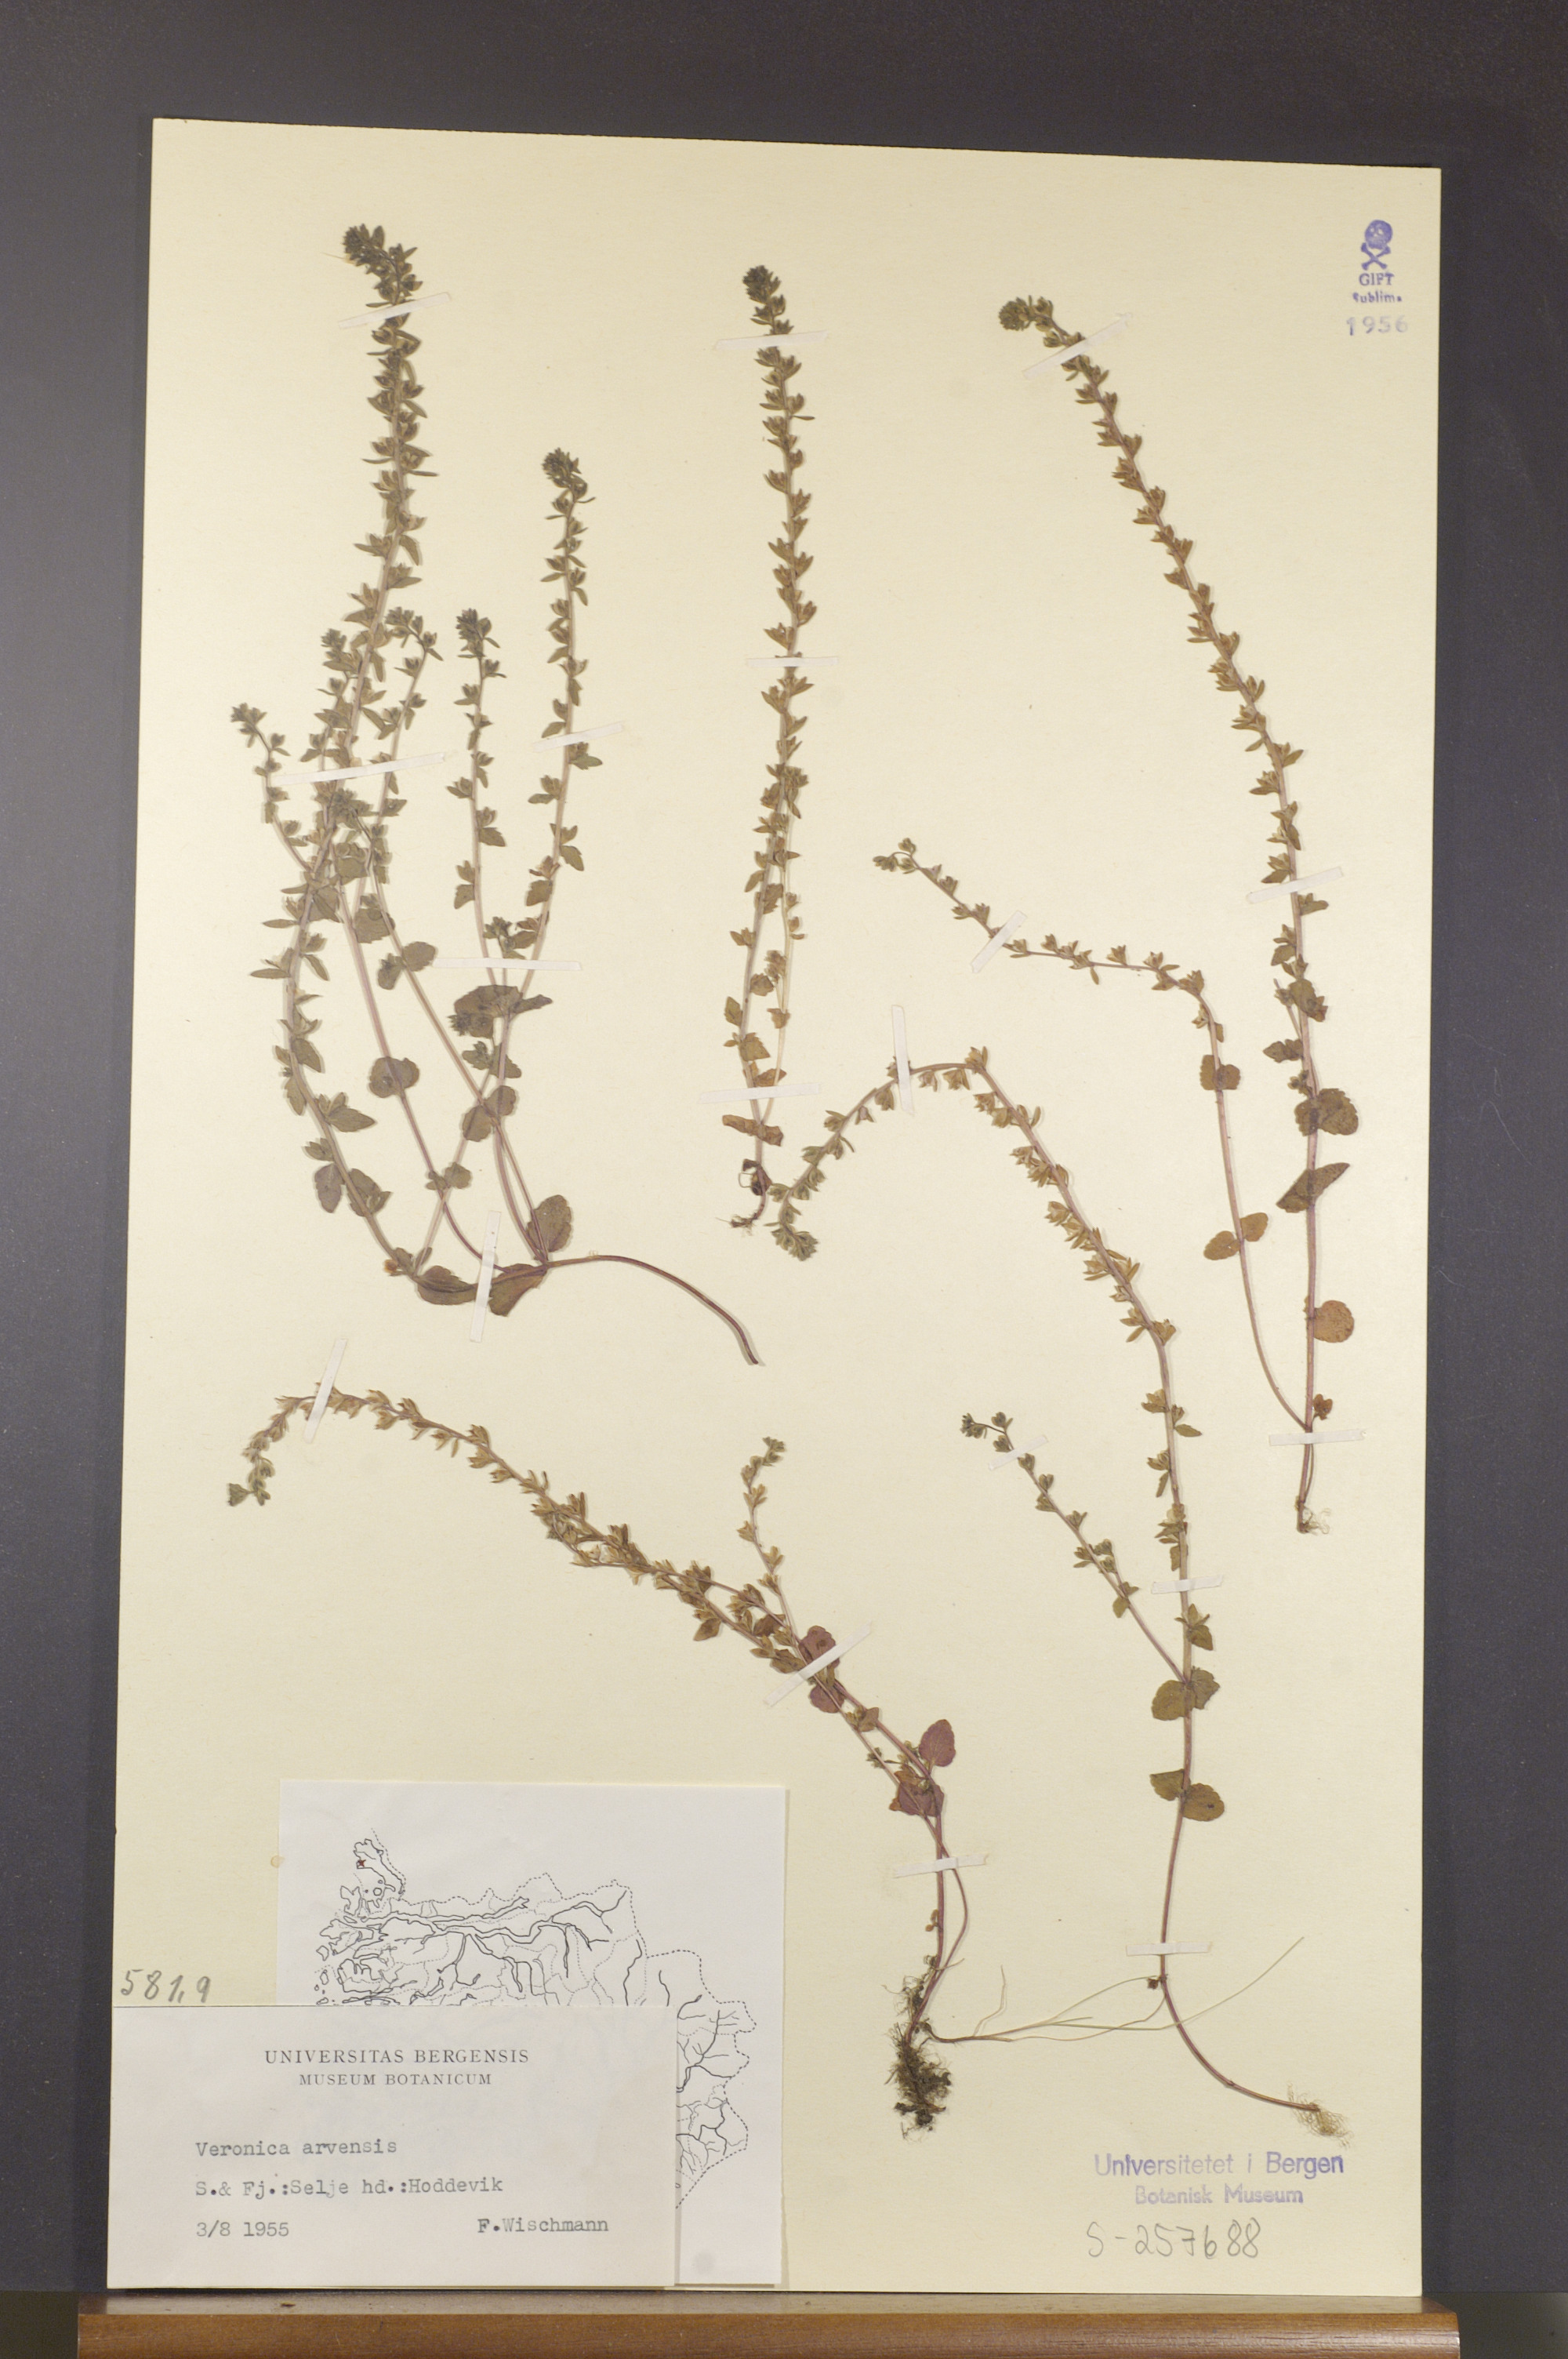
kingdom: Plantae
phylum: Tracheophyta
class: Magnoliopsida
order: Lamiales
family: Plantaginaceae
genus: Veronica
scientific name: Veronica arvensis
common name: Corn speedwell
